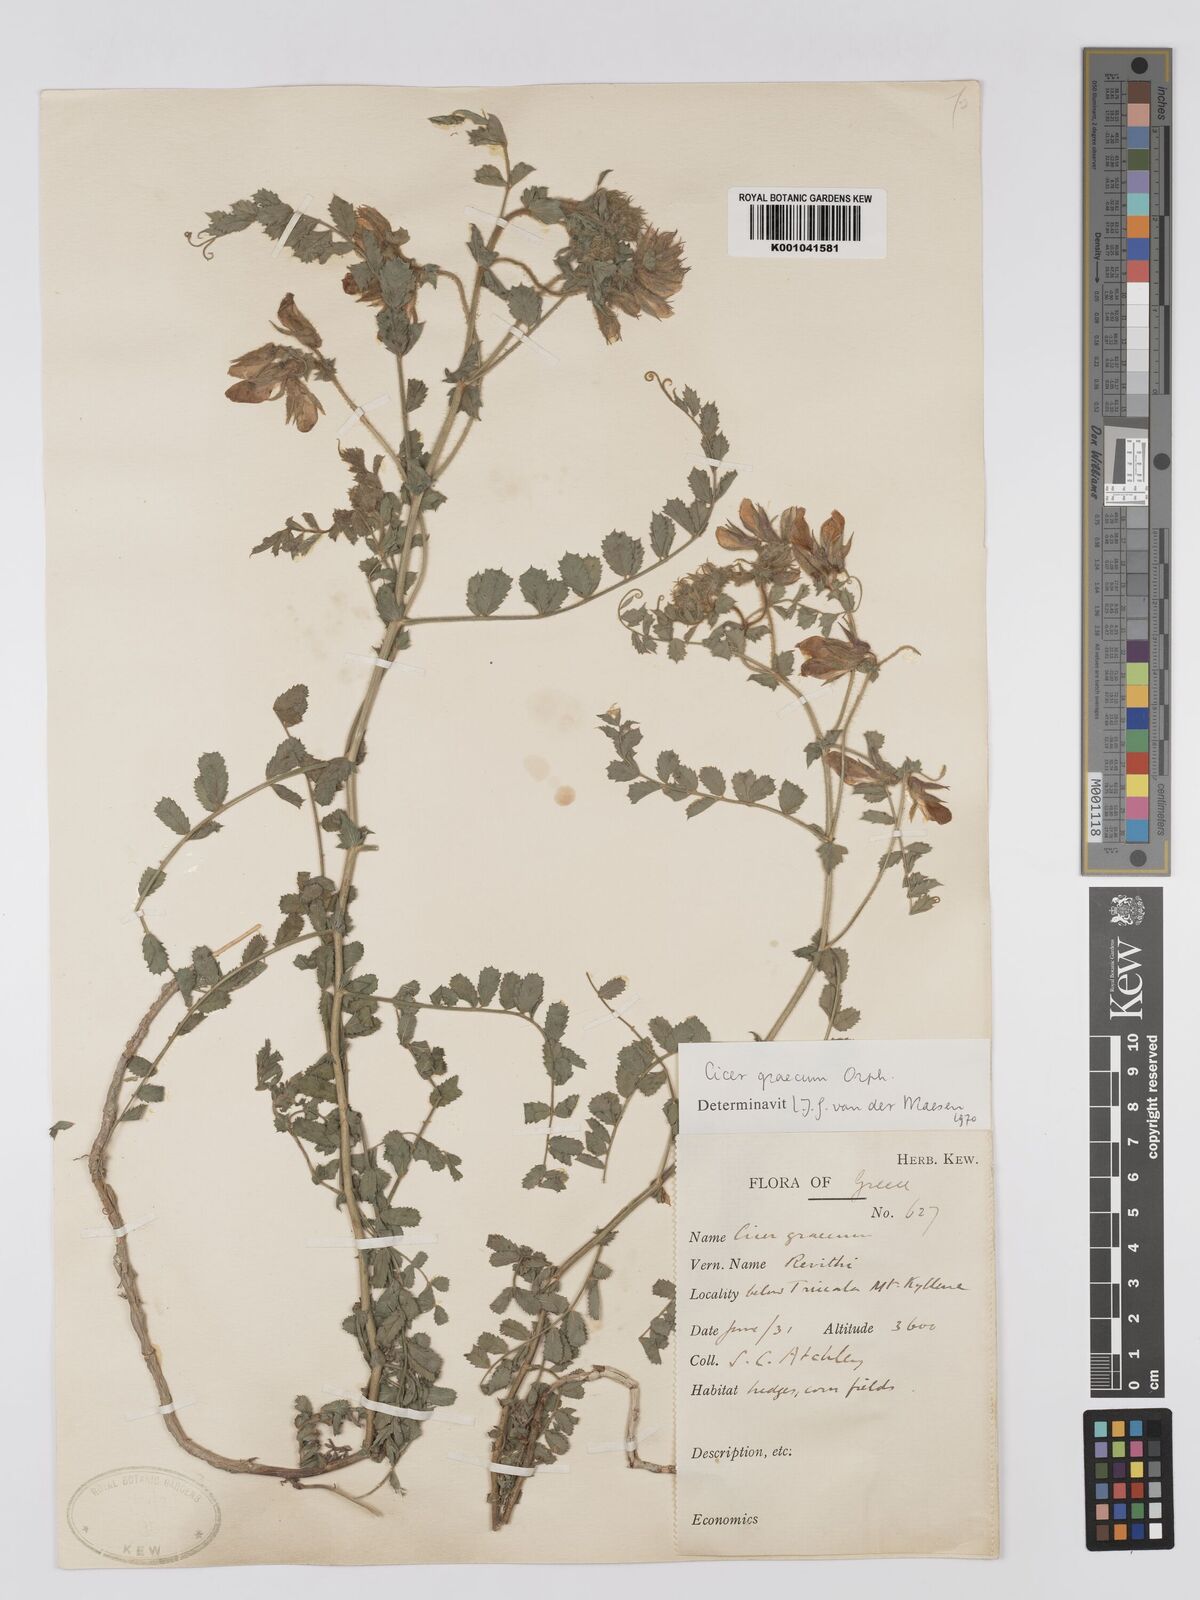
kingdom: Plantae
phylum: Tracheophyta
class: Magnoliopsida
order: Fabales
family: Fabaceae
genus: Cicer
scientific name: Cicer graecum
